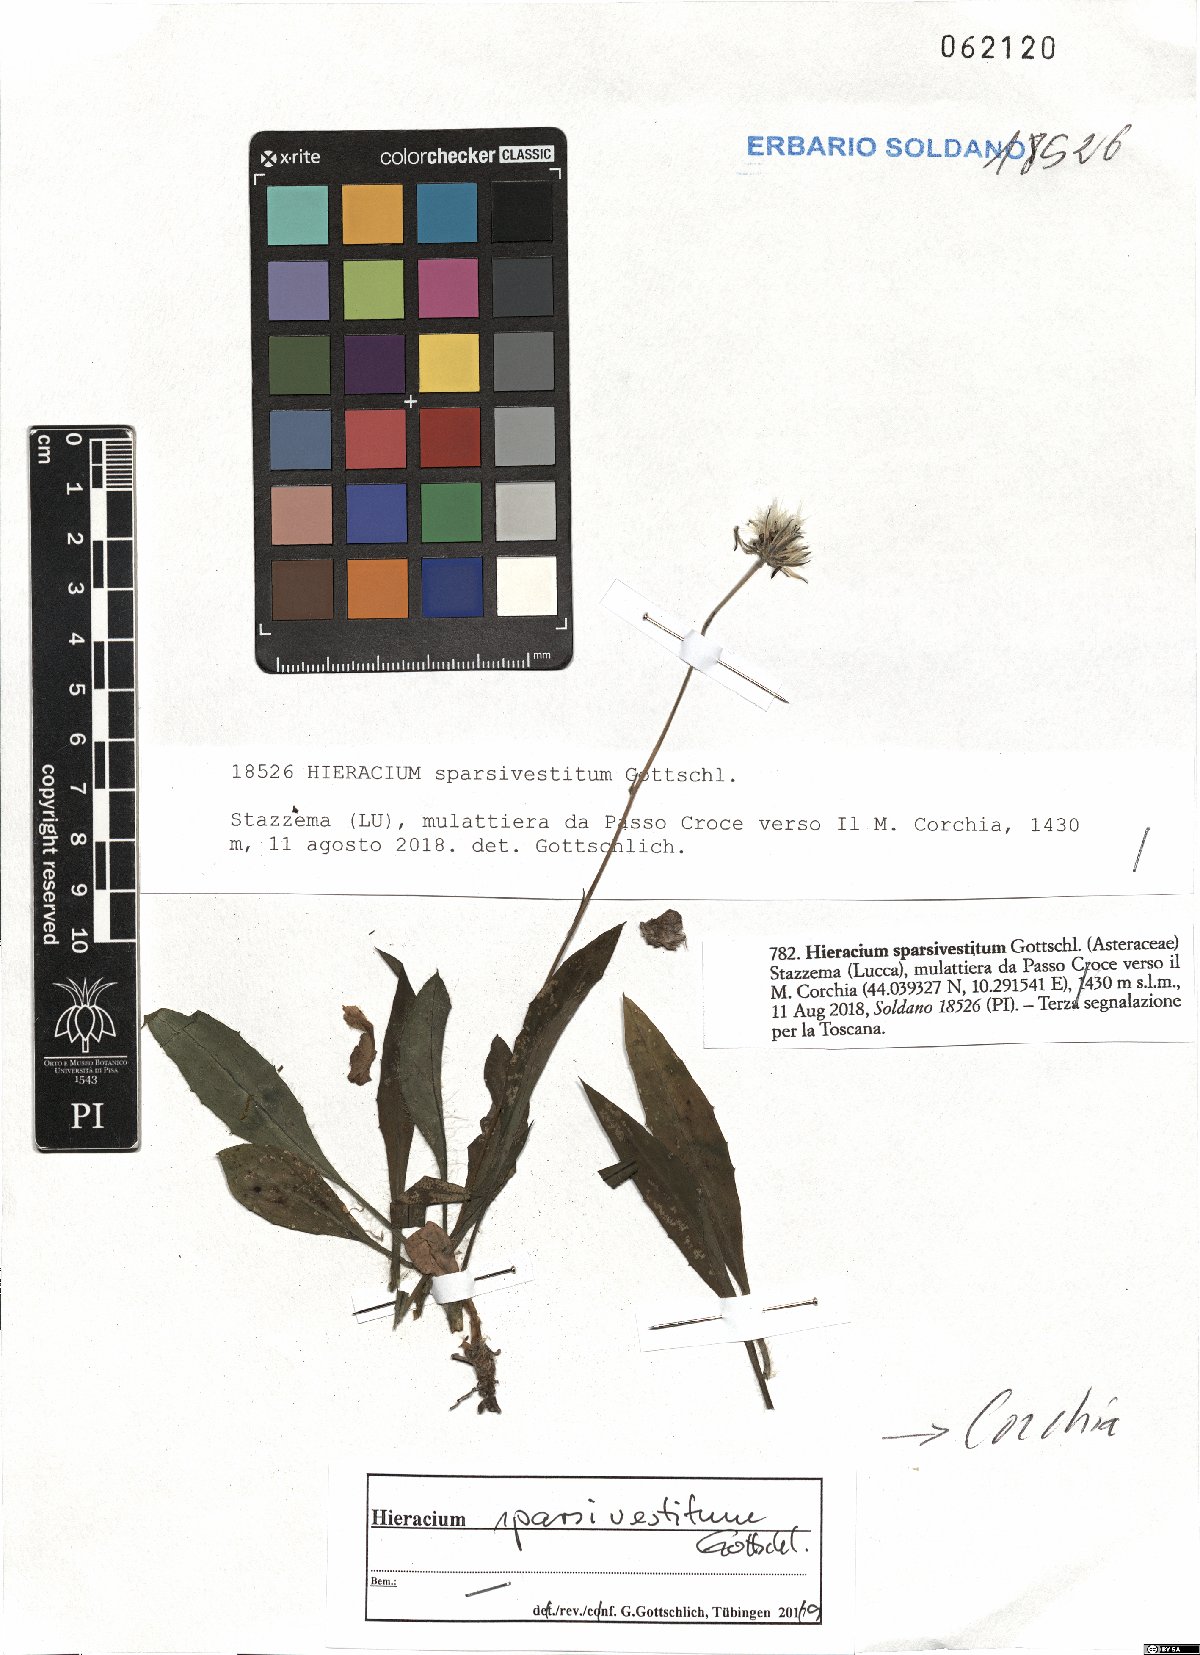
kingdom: Plantae
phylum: Tracheophyta
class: Magnoliopsida
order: Asterales
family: Asteraceae
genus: Hieracium
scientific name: Hieracium sparsivestitum
